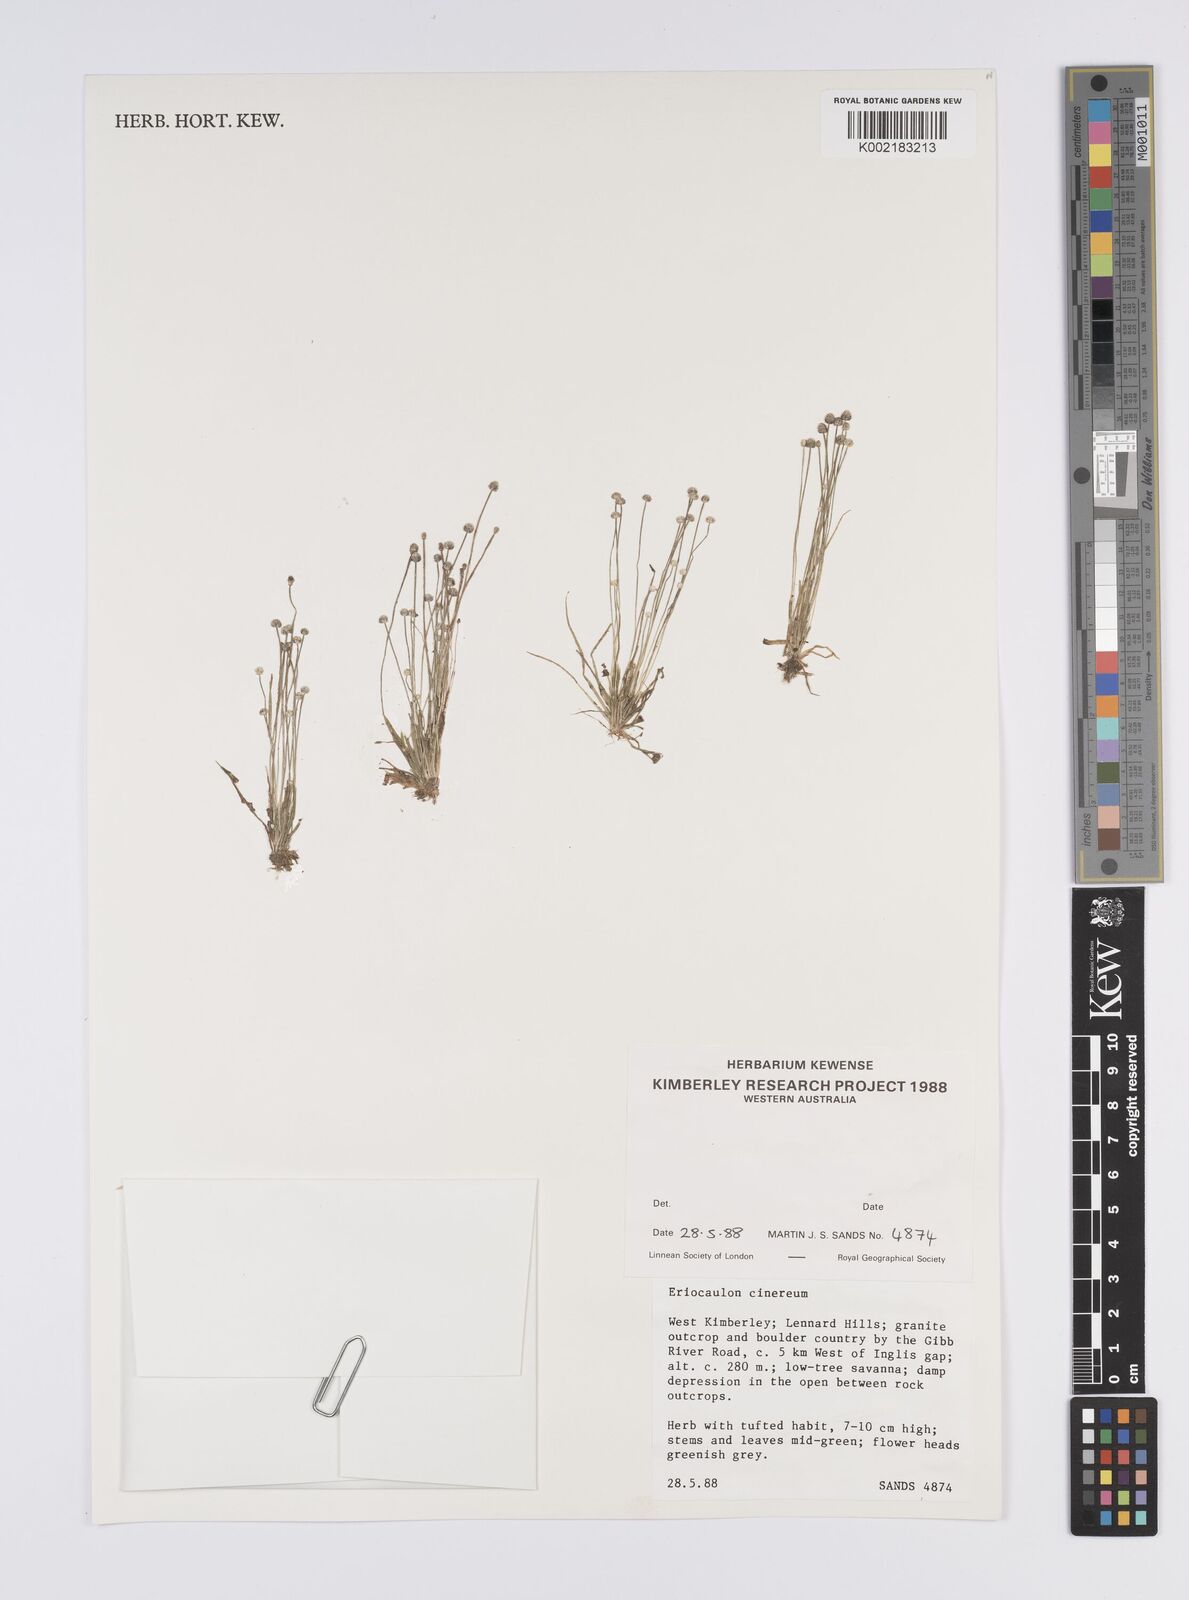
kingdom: Plantae
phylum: Tracheophyta
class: Liliopsida
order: Poales
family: Eriocaulaceae
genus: Eriocaulon
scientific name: Eriocaulon cinereum
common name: Ashy pipewort
